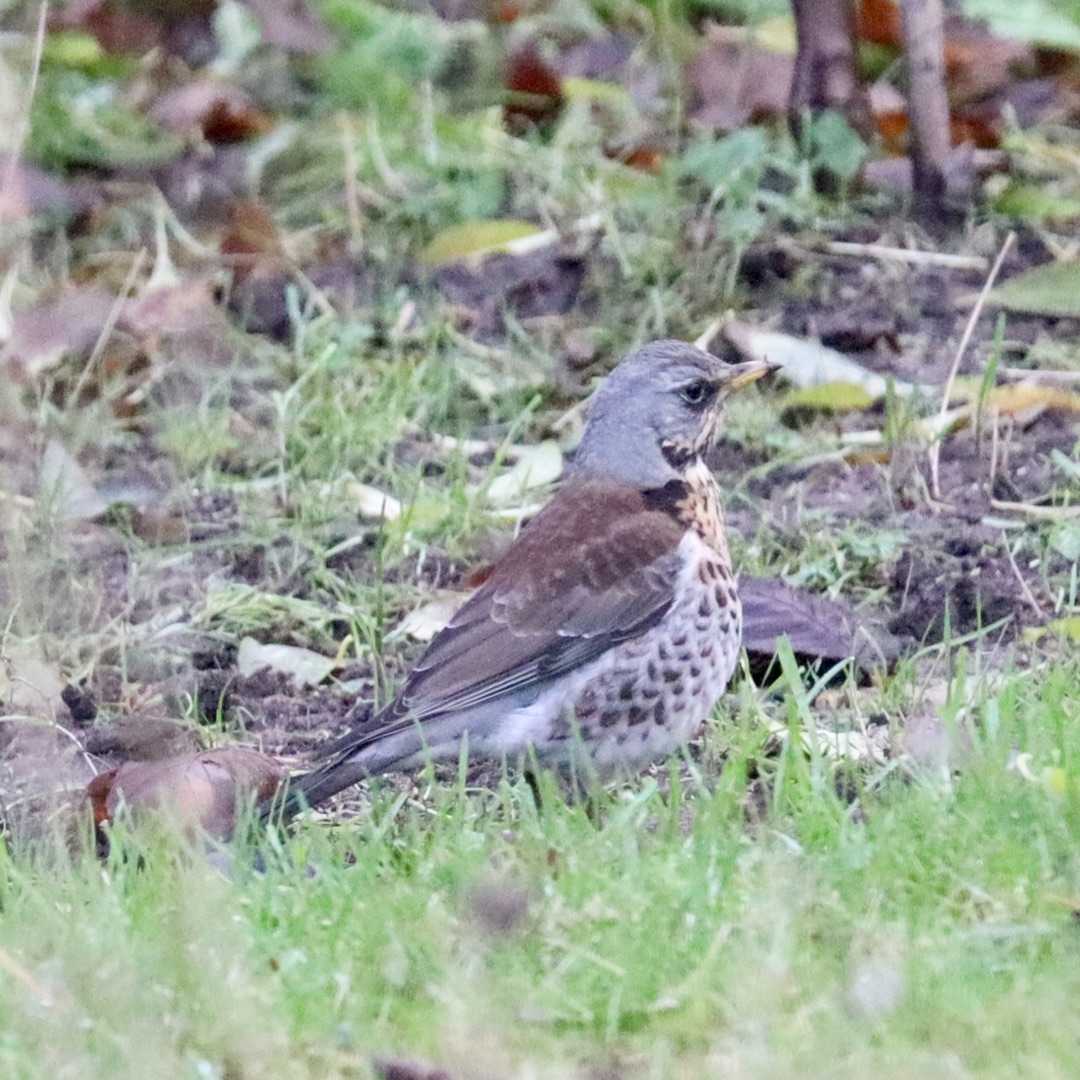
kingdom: Animalia
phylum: Chordata
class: Aves
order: Passeriformes
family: Turdidae
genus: Turdus
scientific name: Turdus pilaris
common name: Sjagger
